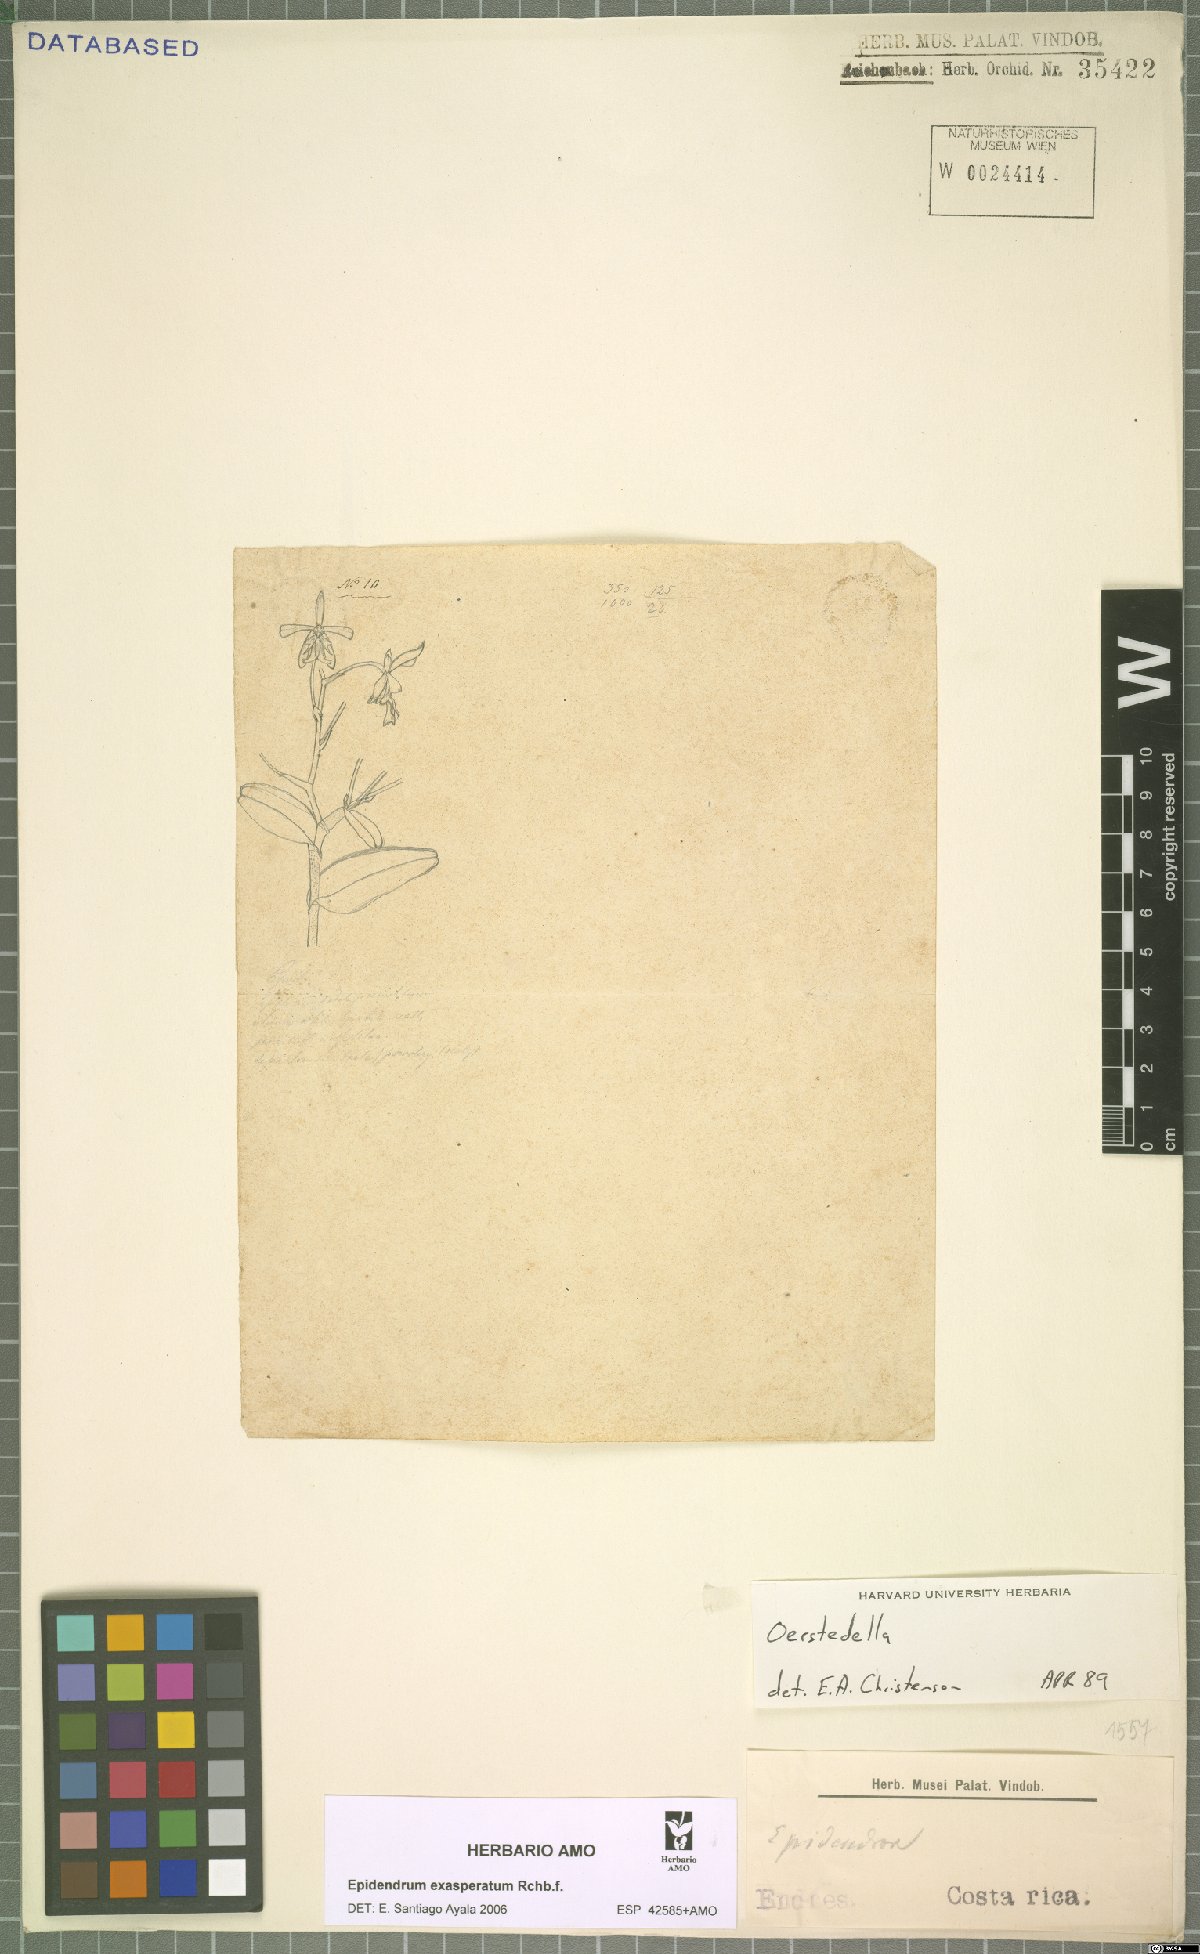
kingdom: Plantae
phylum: Tracheophyta
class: Liliopsida
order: Asparagales
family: Orchidaceae
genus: Epidendrum
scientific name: Epidendrum exasperatum
